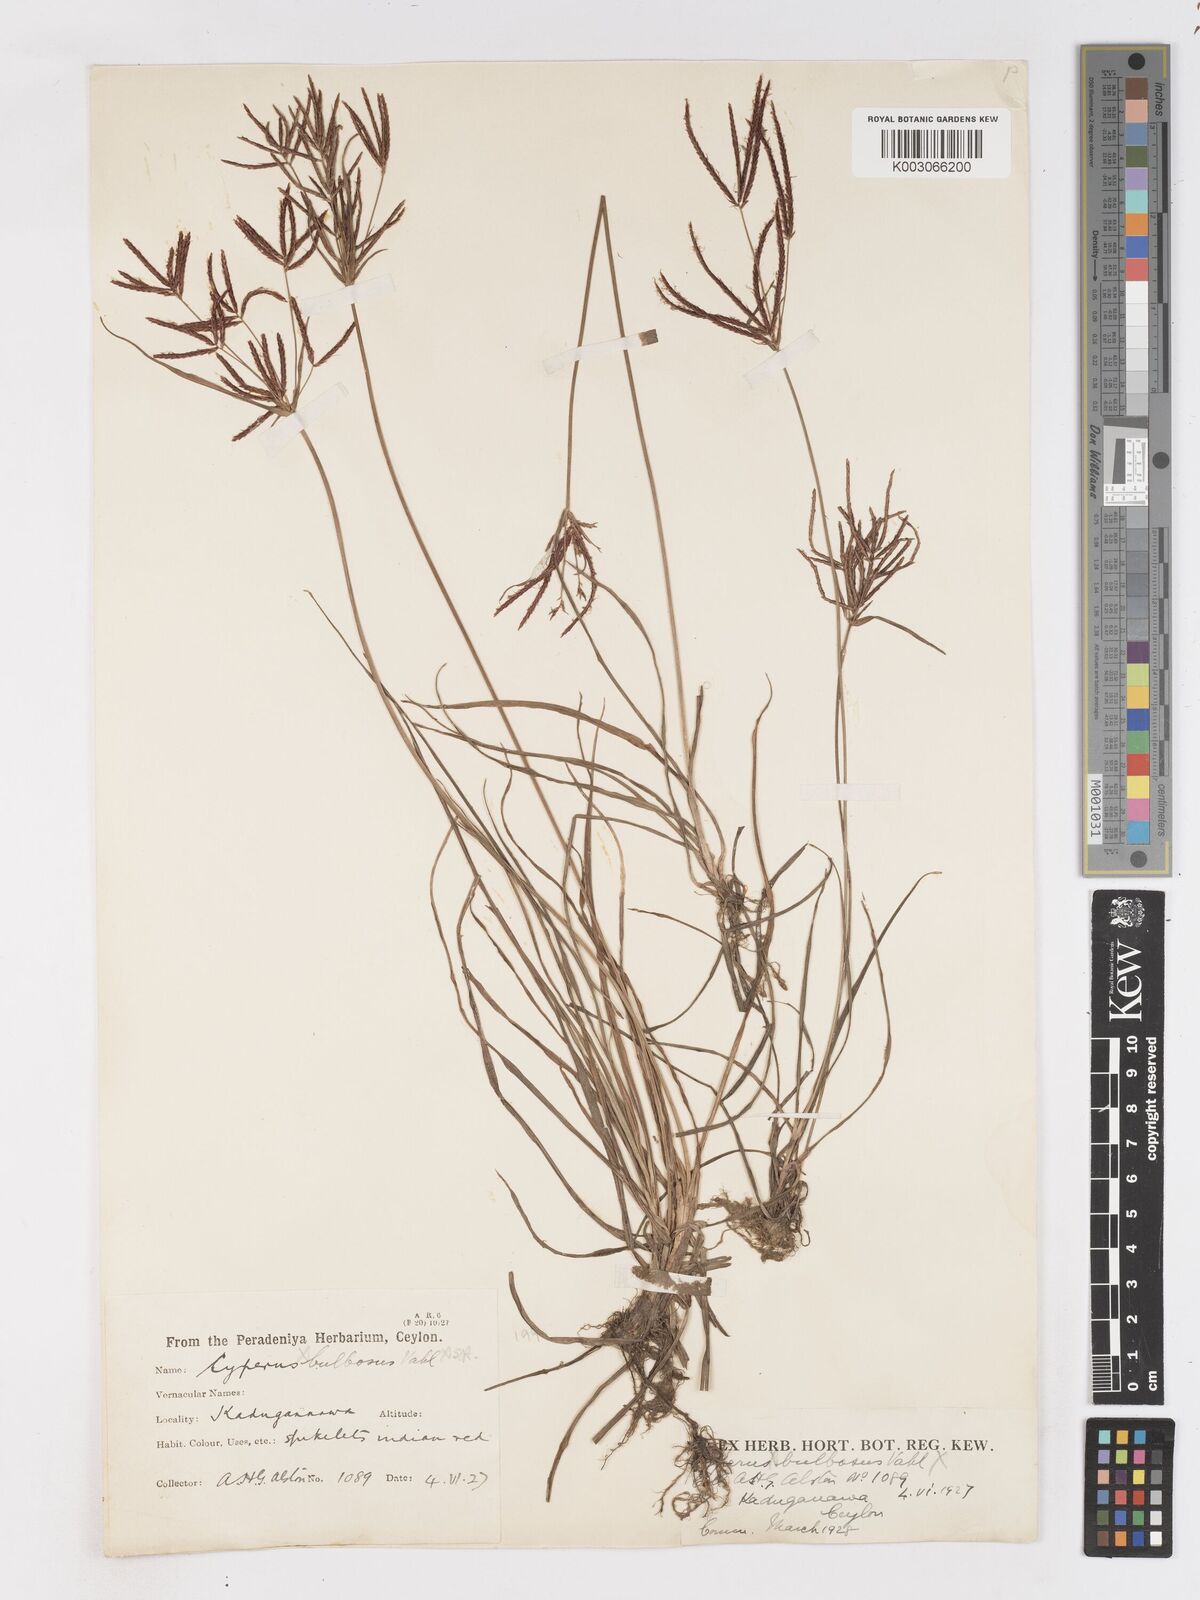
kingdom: Plantae
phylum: Tracheophyta
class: Liliopsida
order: Poales
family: Cyperaceae
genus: Cyperus
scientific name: Cyperus bifax
